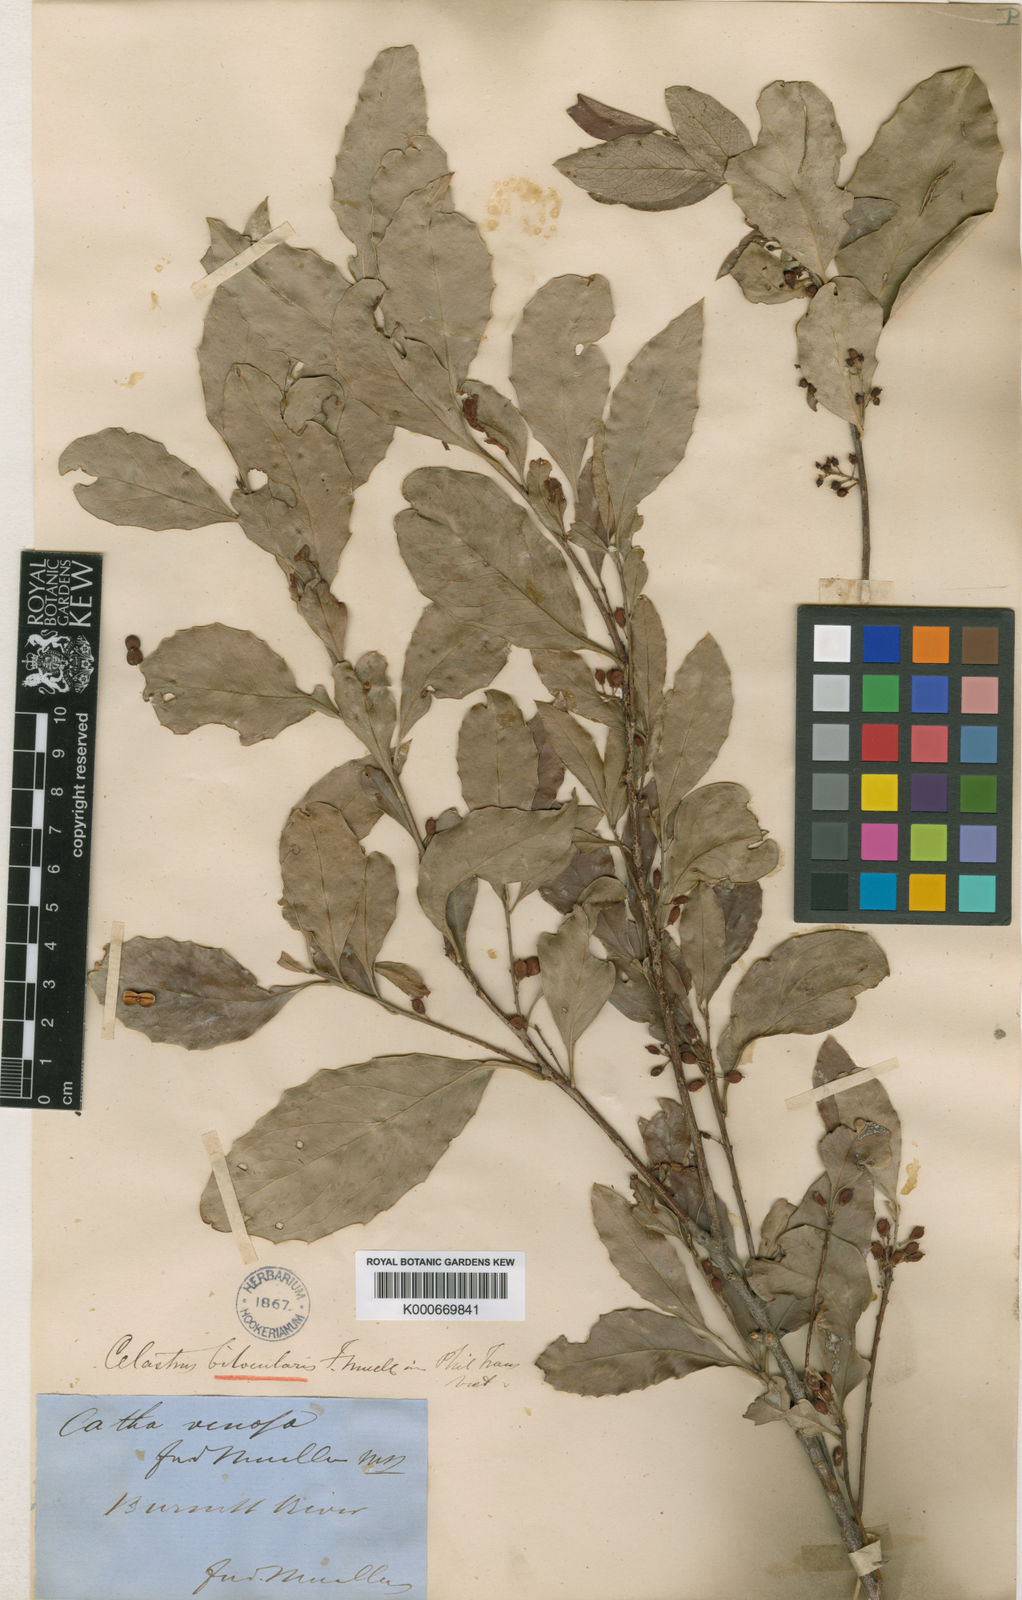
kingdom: Plantae
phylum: Tracheophyta
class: Magnoliopsida
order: Celastrales
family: Celastraceae
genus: Denhamia
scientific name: Denhamia bilocularis
